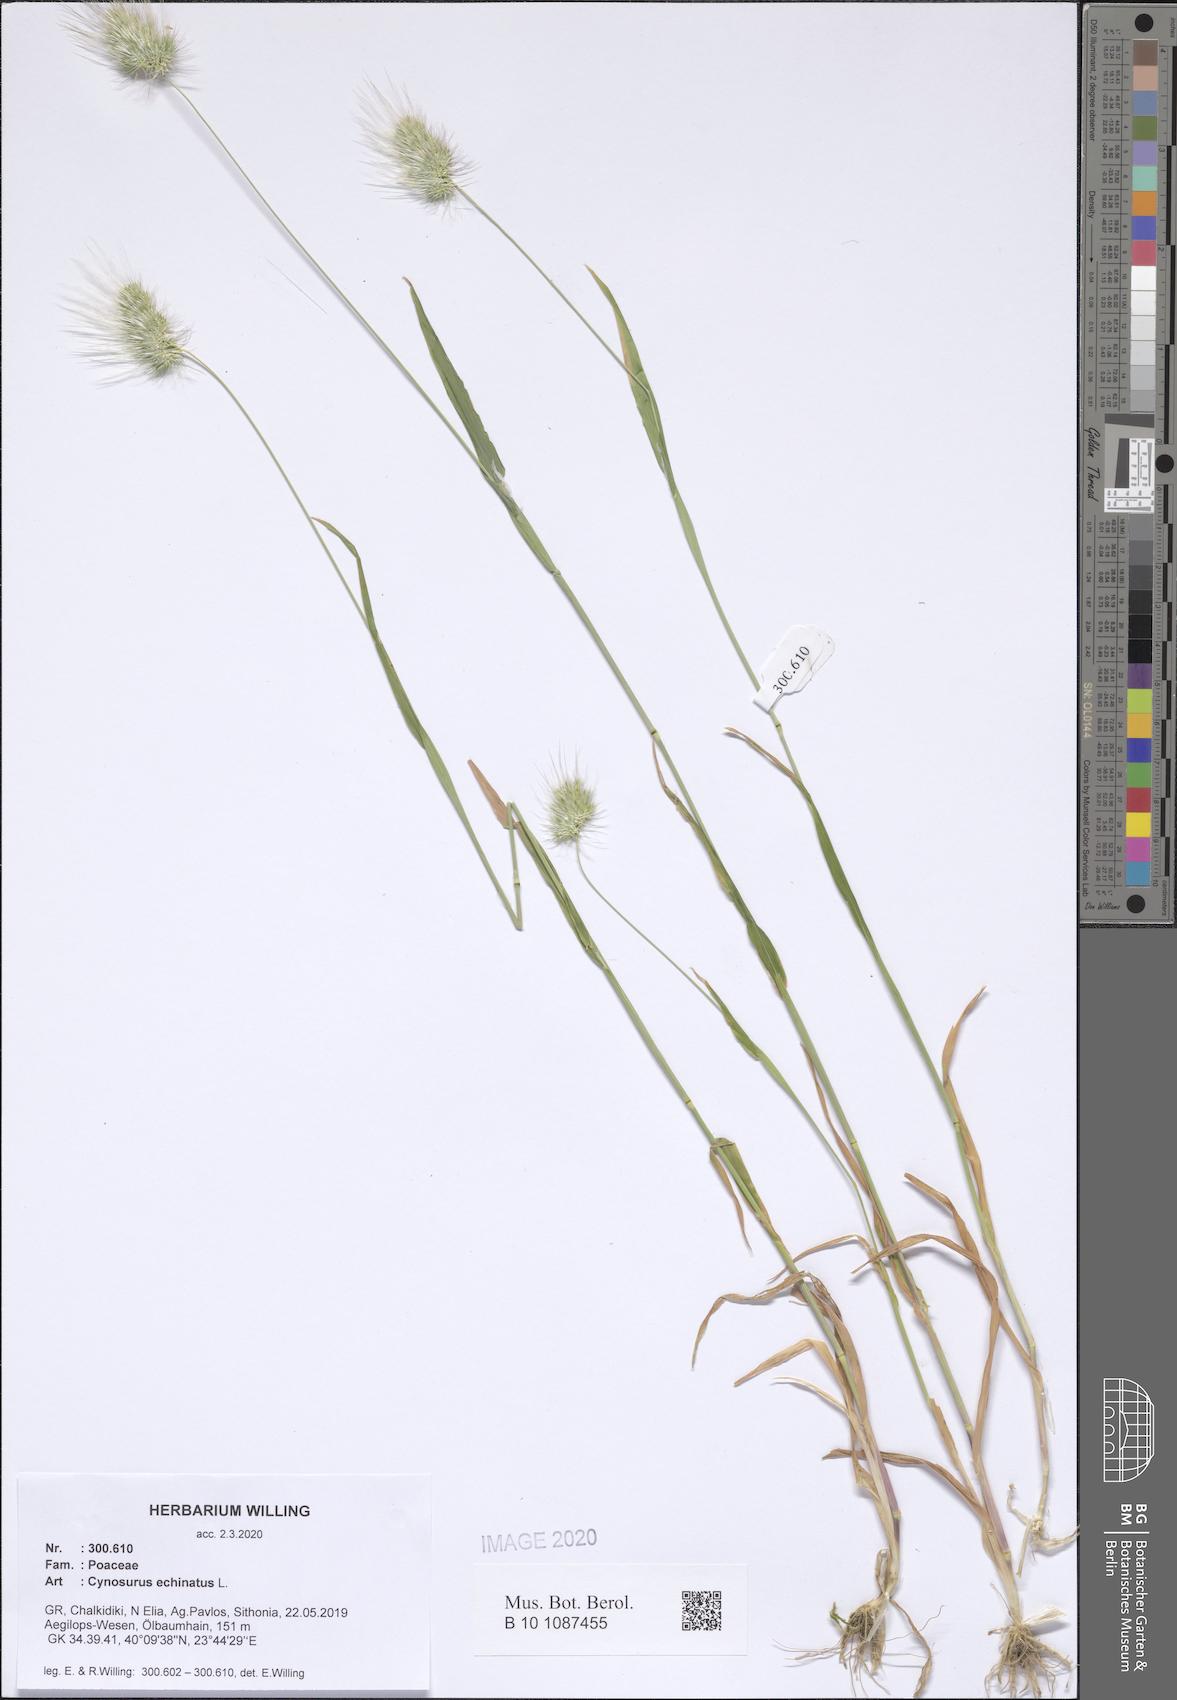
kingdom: Plantae
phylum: Tracheophyta
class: Liliopsida
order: Poales
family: Poaceae
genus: Cynosurus
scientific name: Cynosurus echinatus
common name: Rough dog's-tail
